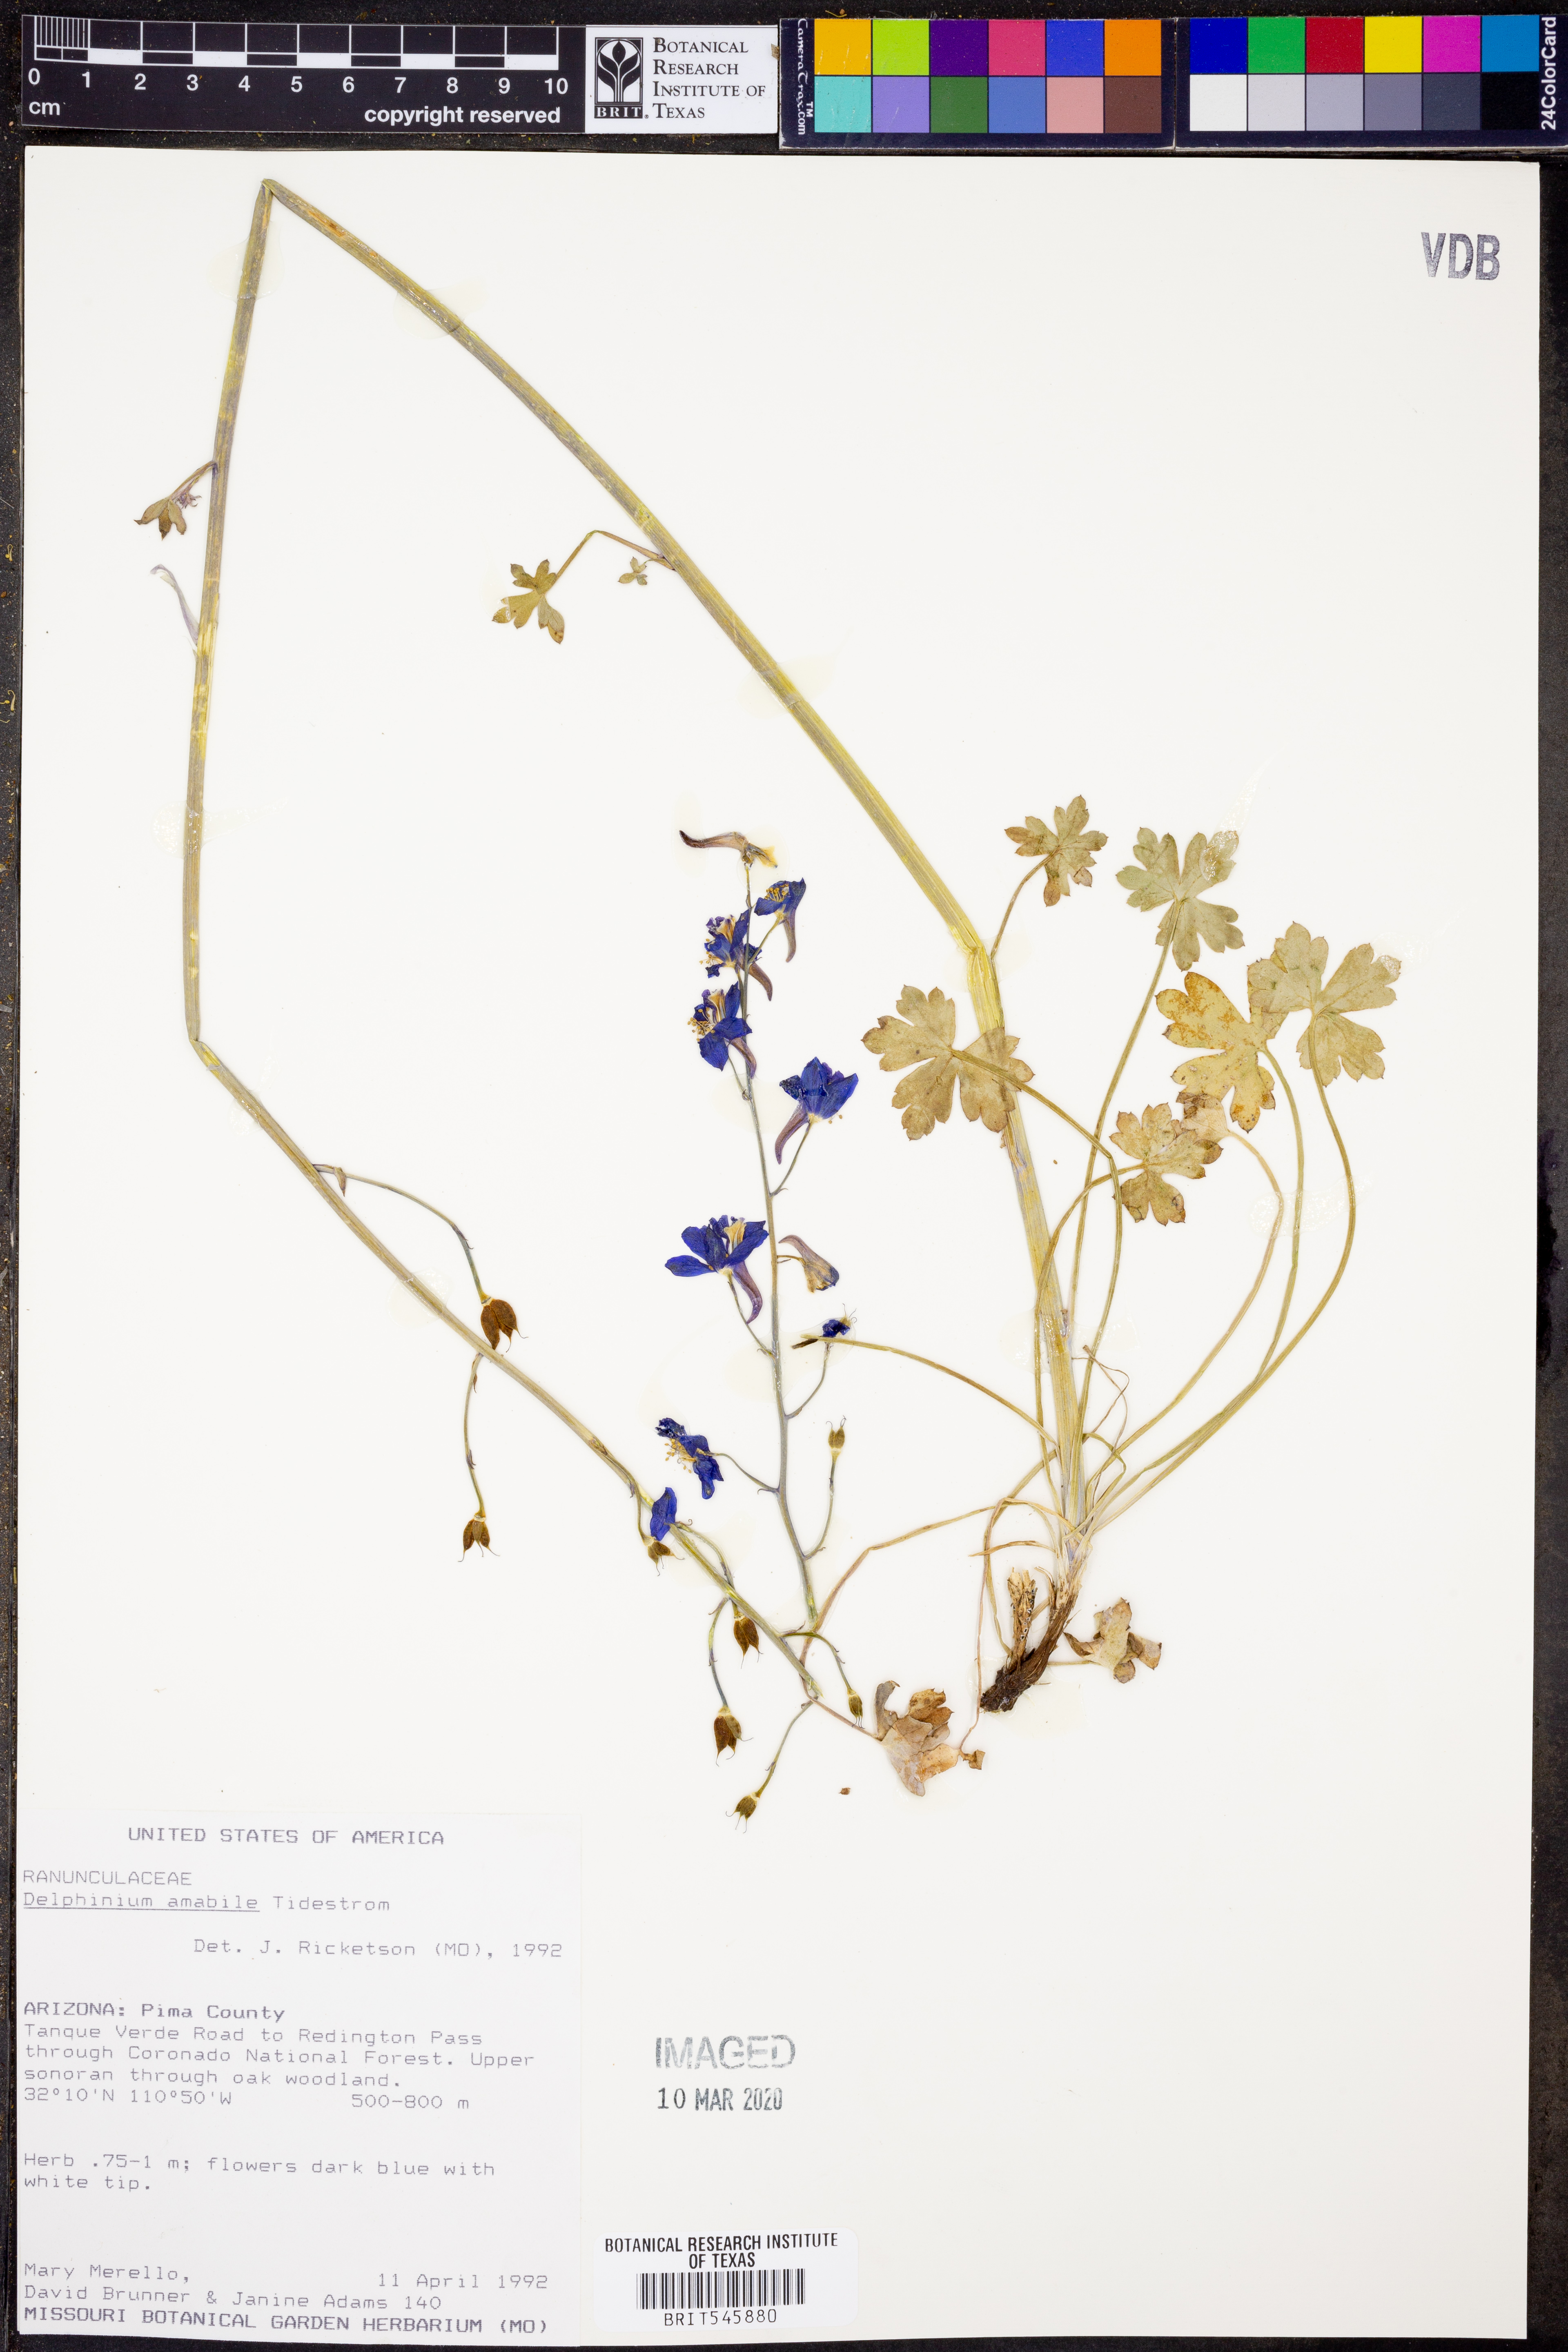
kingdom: Plantae
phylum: Tracheophyta
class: Magnoliopsida
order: Ranunculales
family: Ranunculaceae
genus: Delphinium
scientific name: Delphinium parishii
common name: Apache larkspur
